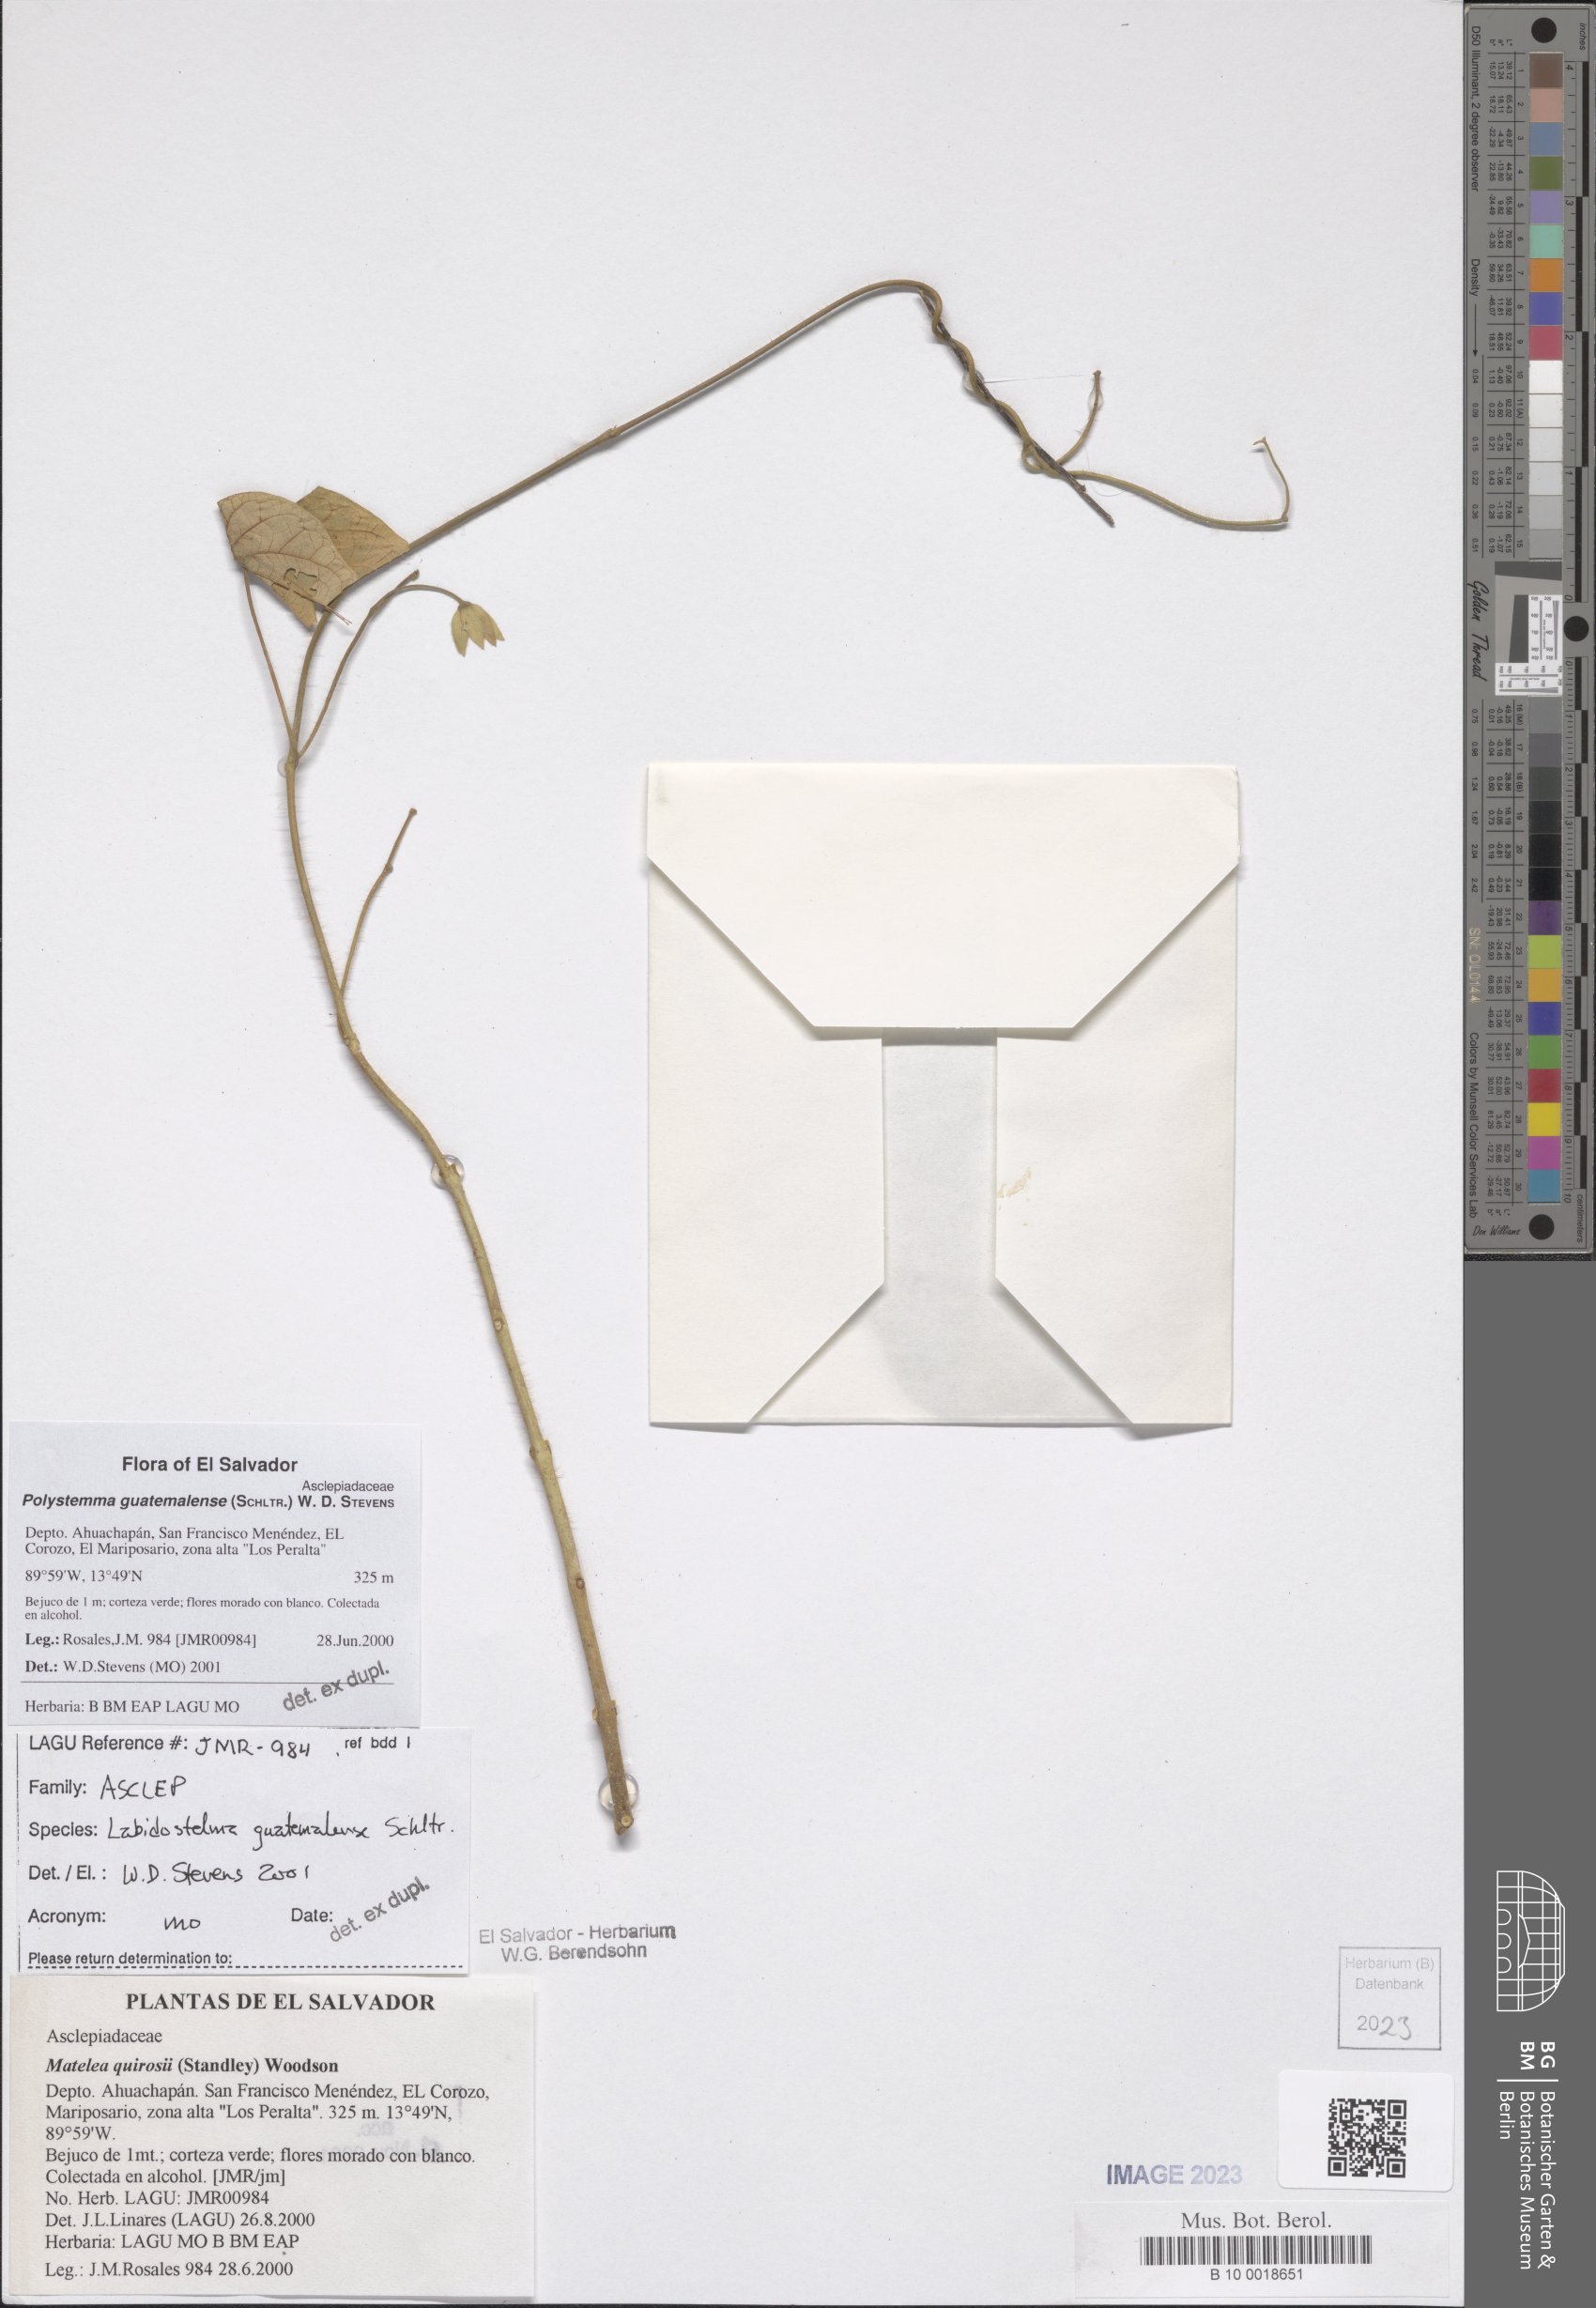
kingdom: Plantae
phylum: Tracheophyta
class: Magnoliopsida
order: Gentianales
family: Apocynaceae
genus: Polystemma
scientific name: Polystemma guatemalense
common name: Arborescente rattan
